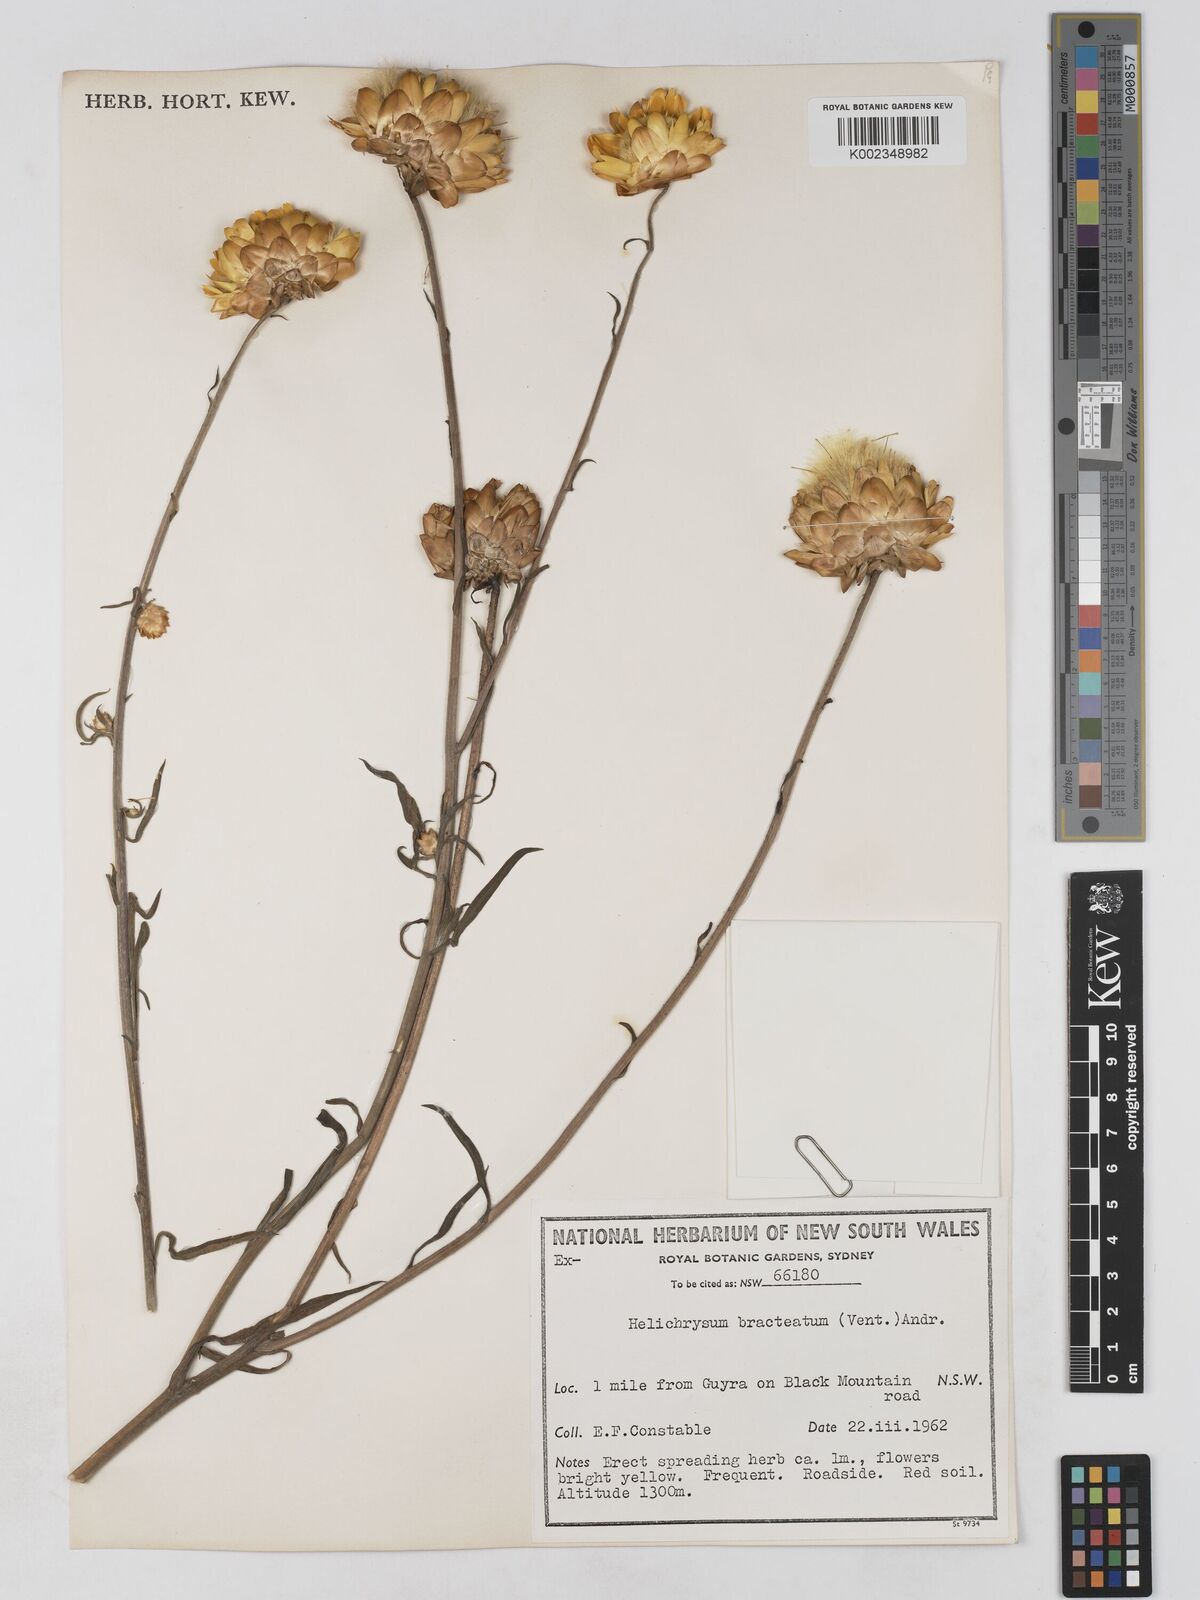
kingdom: Plantae
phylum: Tracheophyta
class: Magnoliopsida
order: Asterales
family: Asteraceae
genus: Xerochrysum
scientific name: Xerochrysum bracteatum
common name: Bracted strawflower
